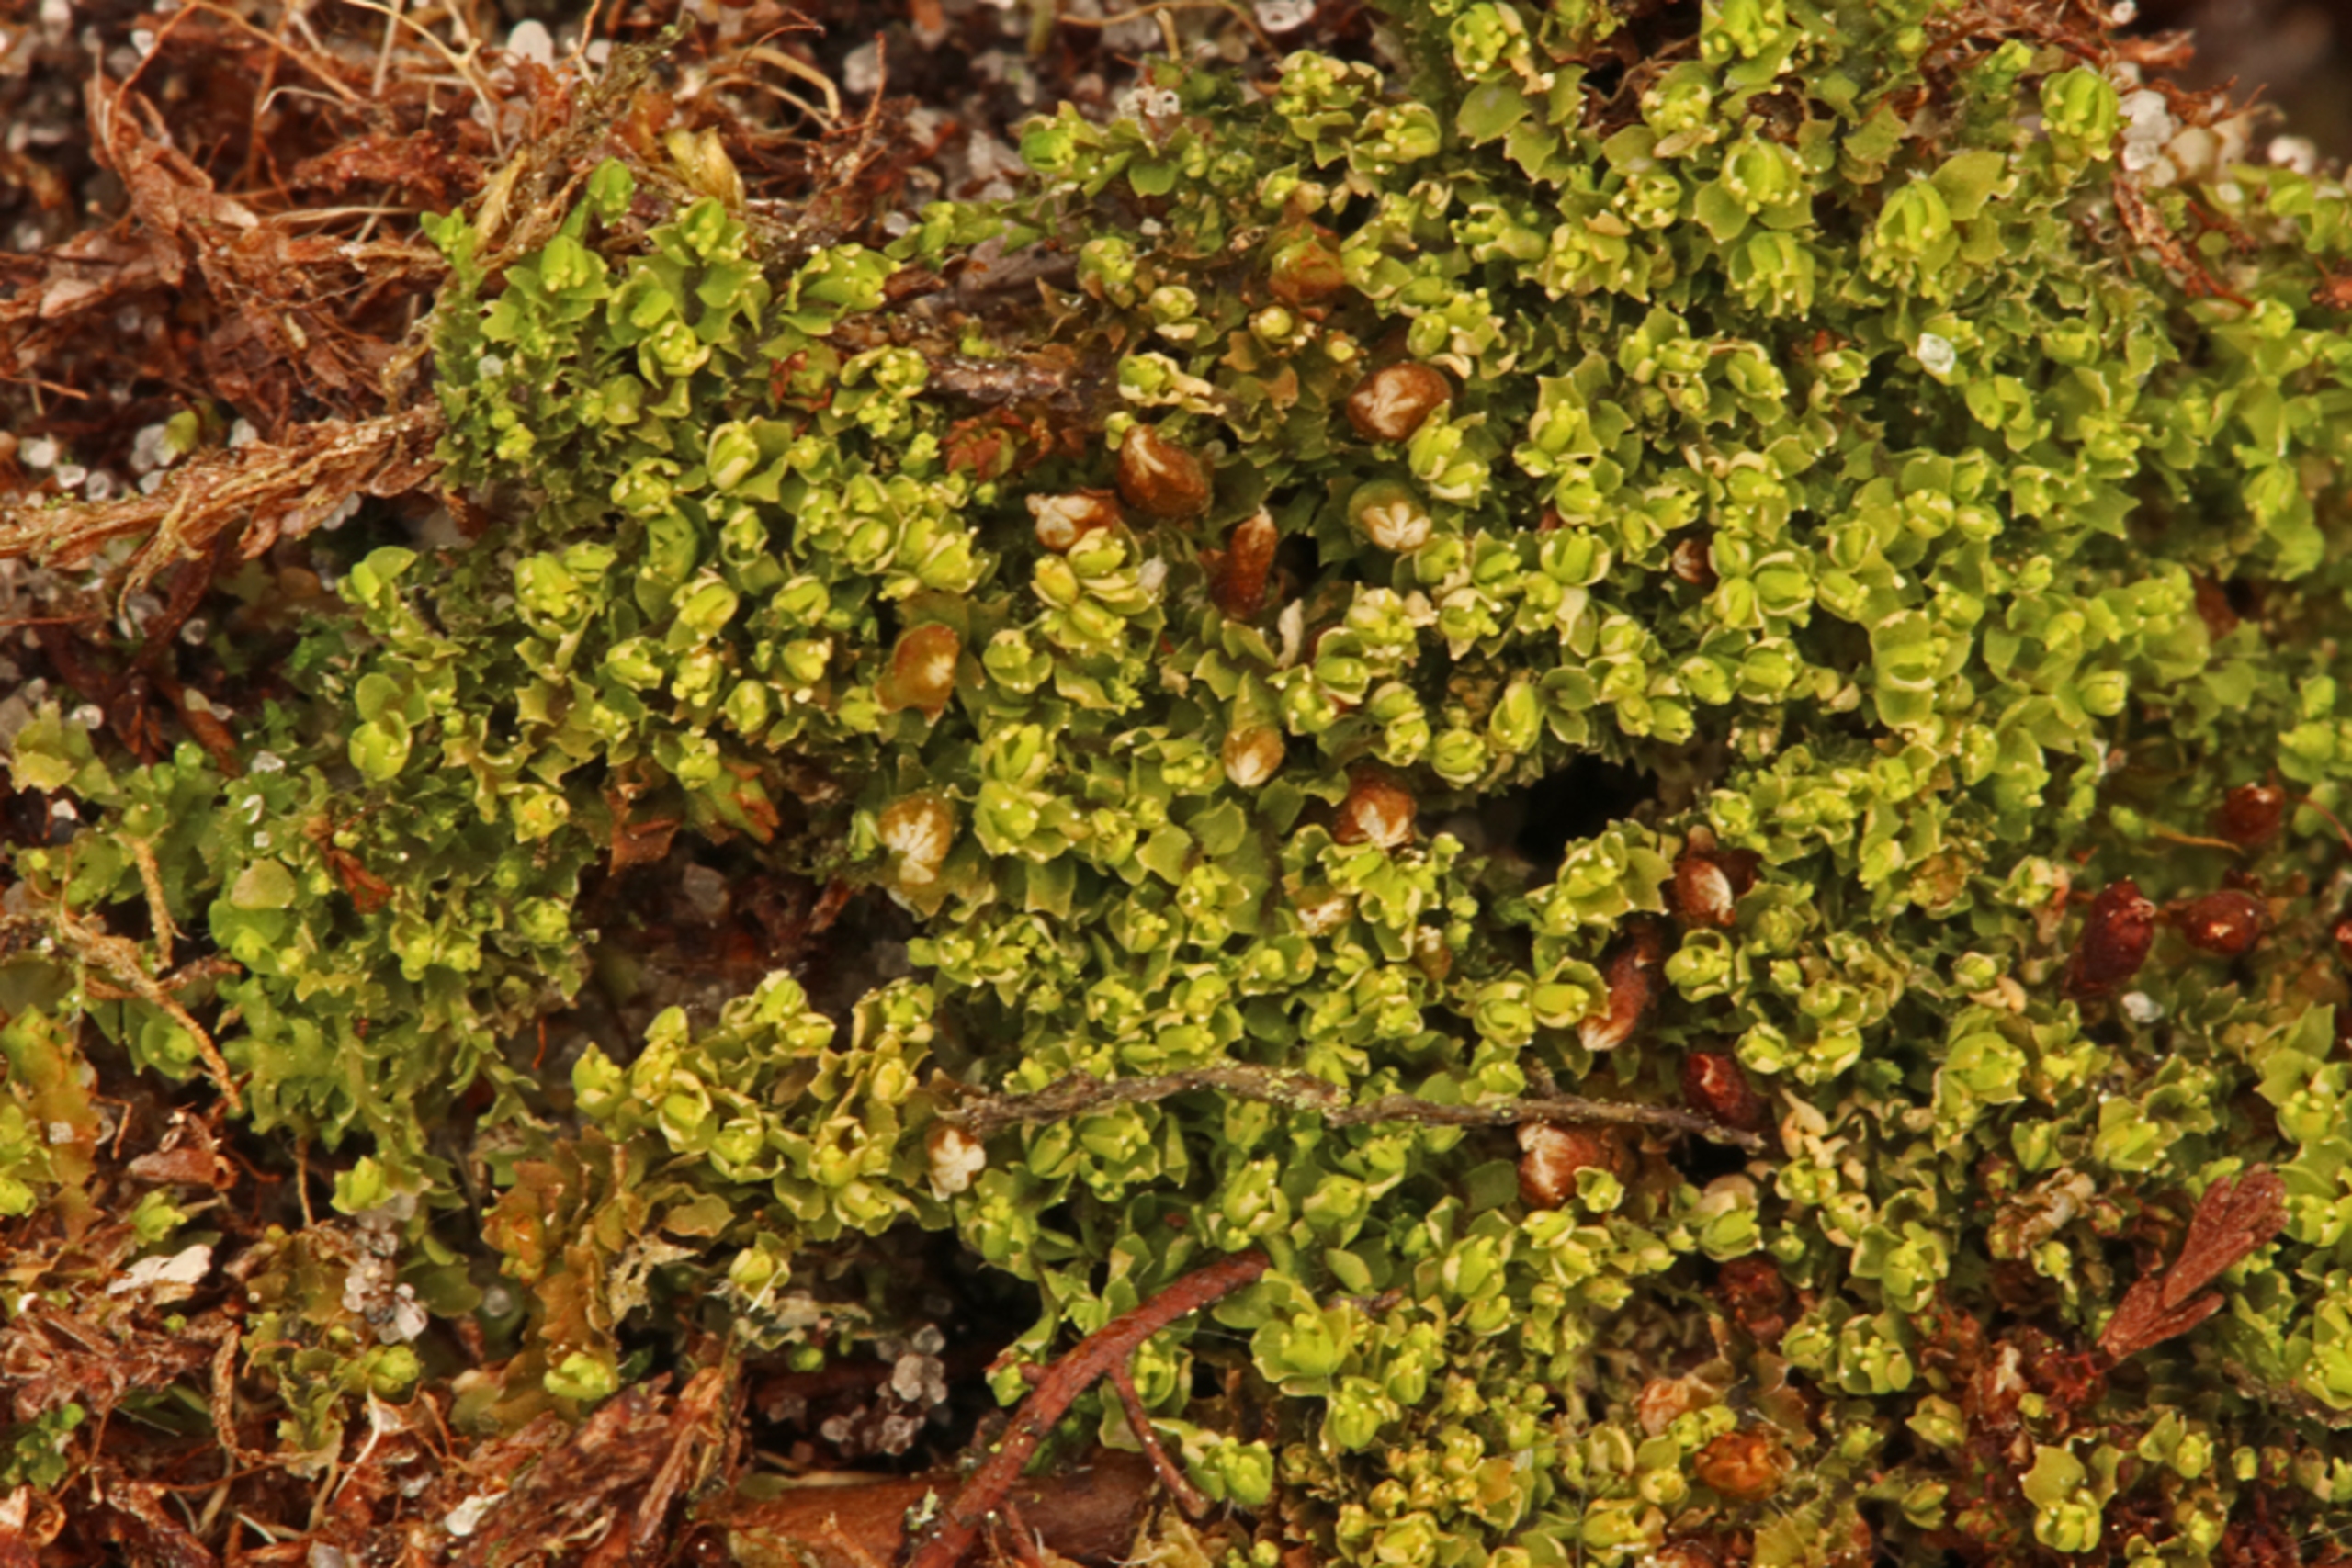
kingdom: Plantae
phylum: Marchantiophyta
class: Jungermanniopsida
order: Jungermanniales
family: Lophoziaceae
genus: Lophozia
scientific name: Lophozia ventricosa
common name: Grønkornet foldbæger
